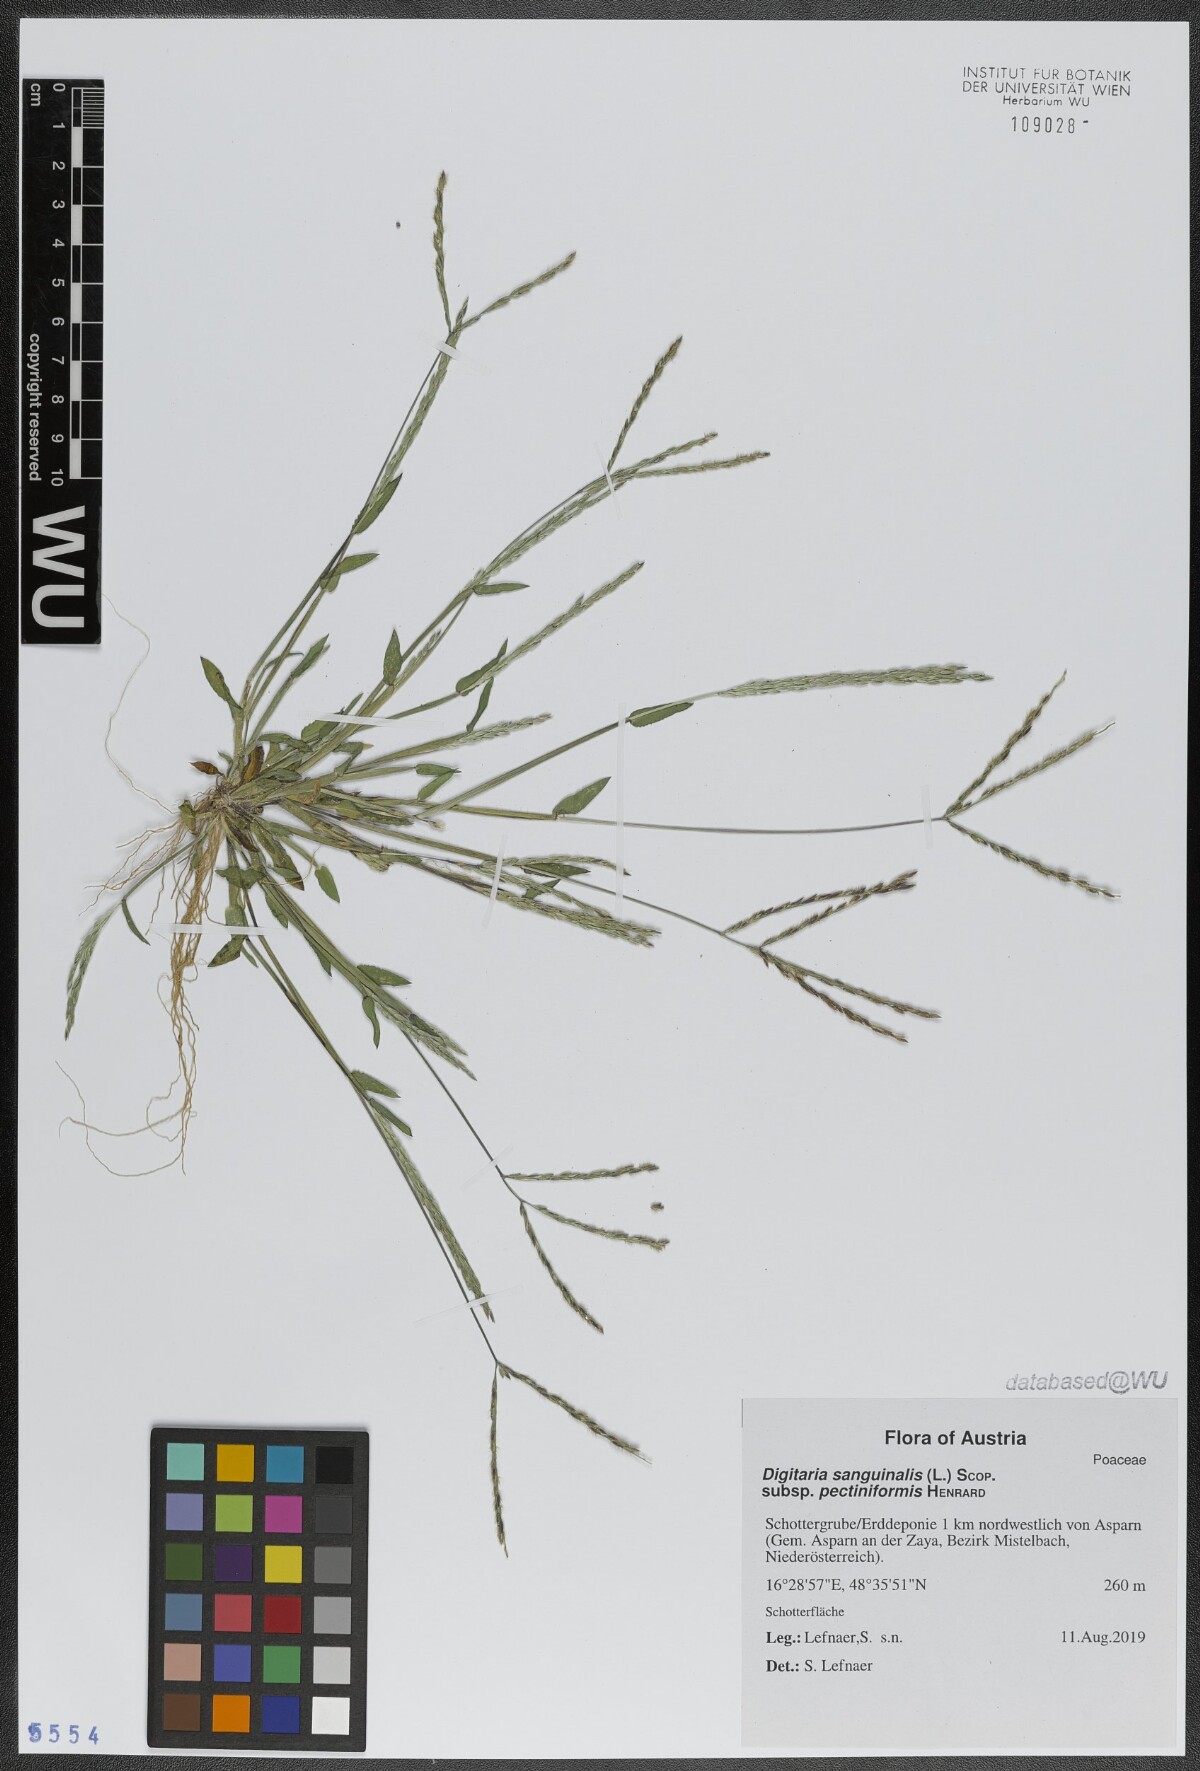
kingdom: Plantae
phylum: Tracheophyta
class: Liliopsida
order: Poales
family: Poaceae
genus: Digitaria
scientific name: Digitaria sanguinalis
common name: Hairy crabgrass
